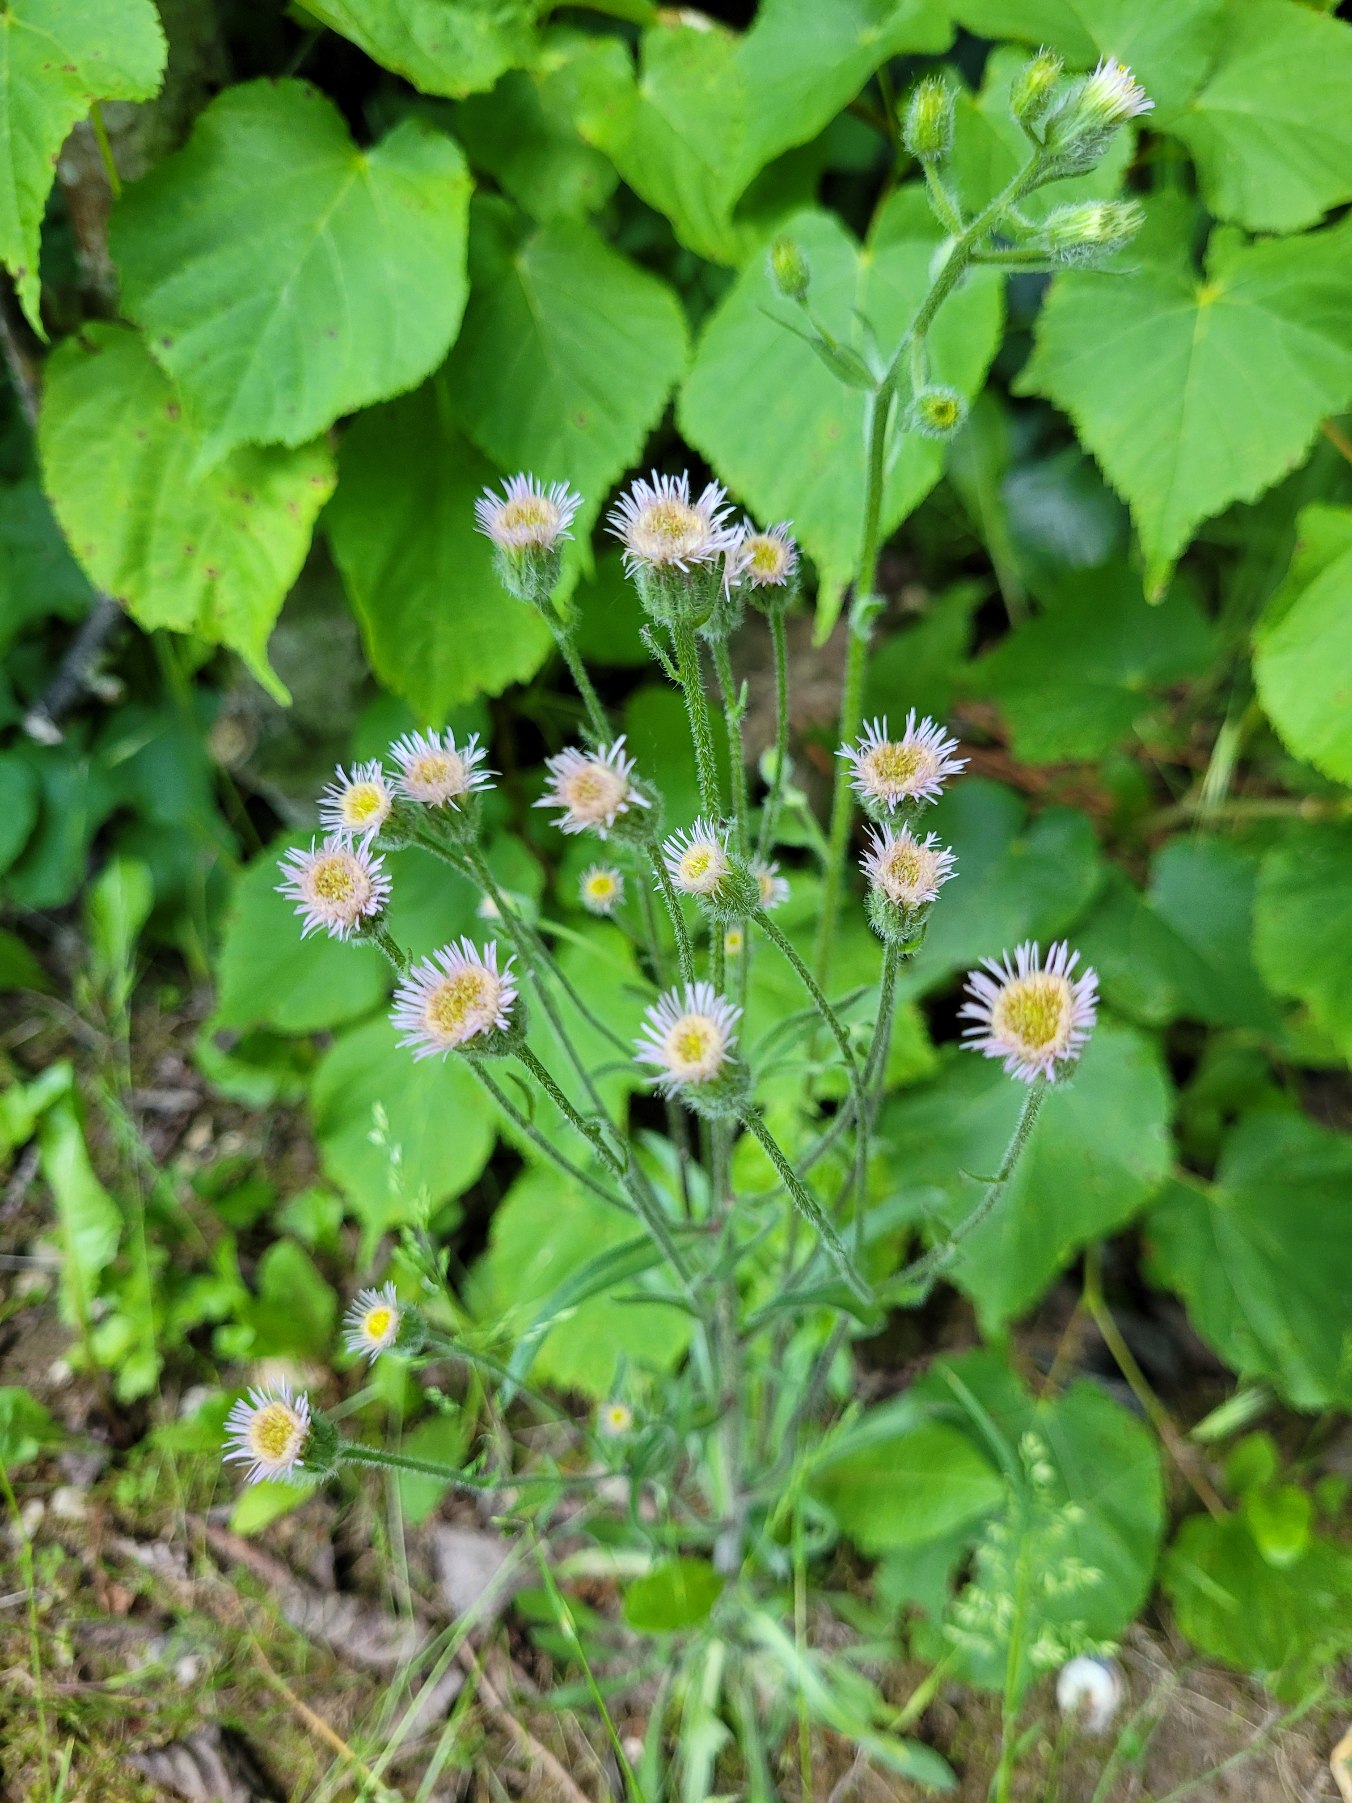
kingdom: Plantae
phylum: Tracheophyta
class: Magnoliopsida
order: Asterales
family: Asteraceae
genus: Erigeron
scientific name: Erigeron acris
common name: Bitter bakkestjerne
